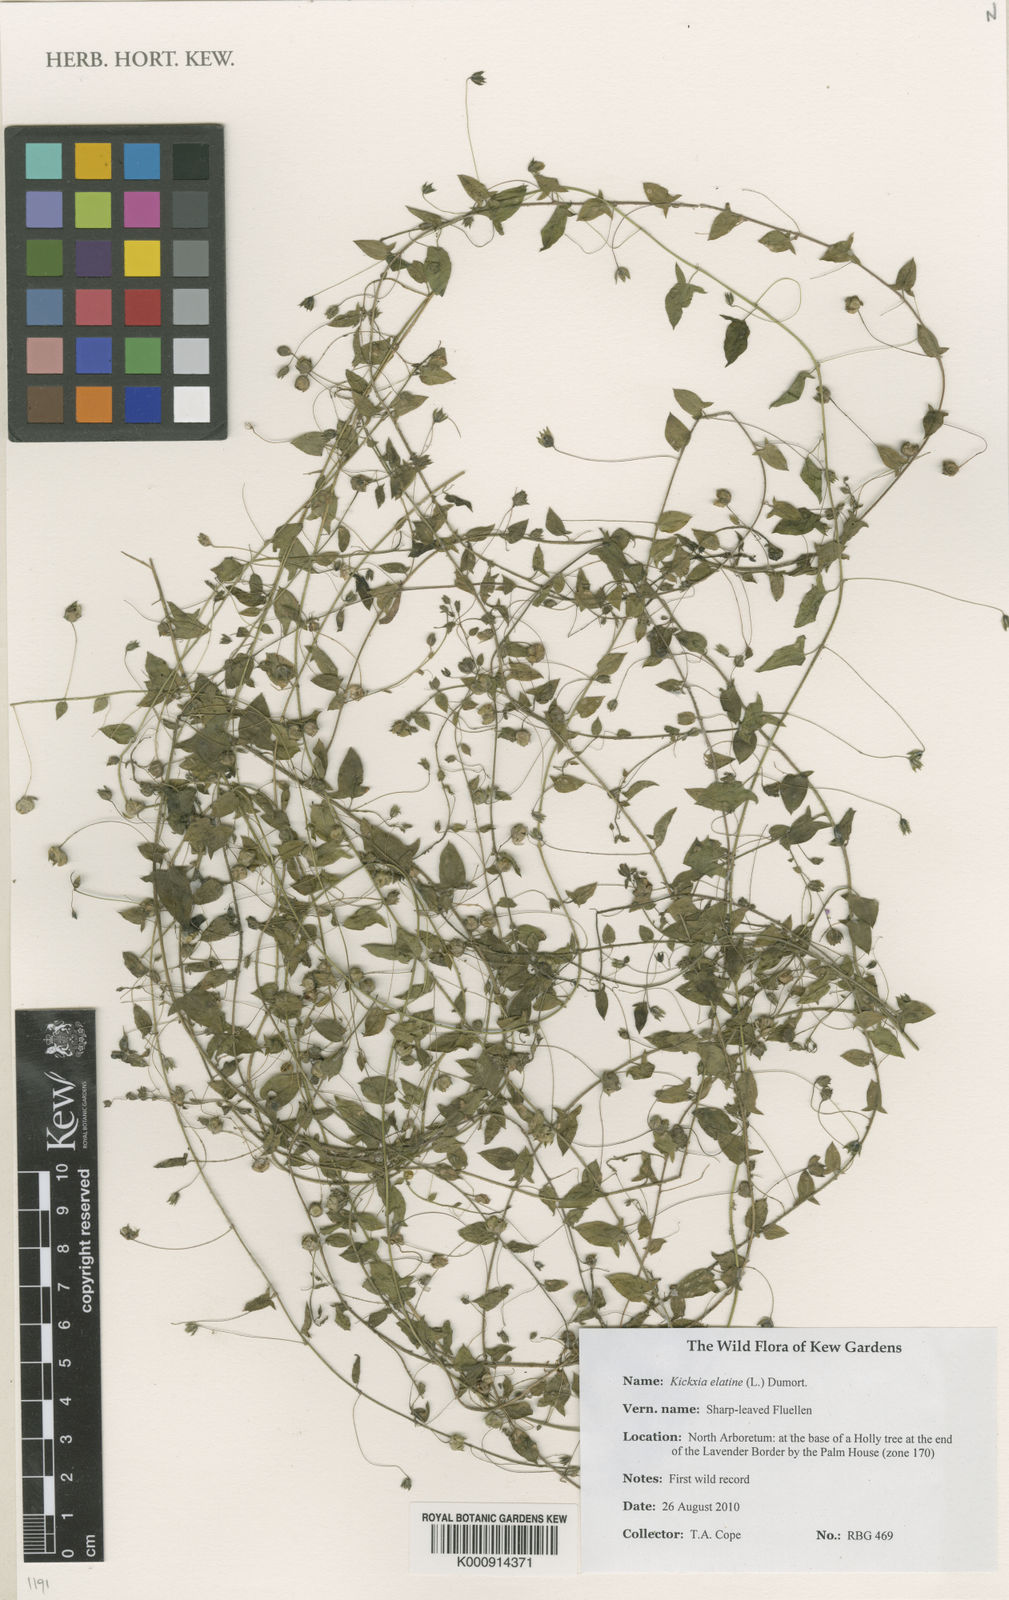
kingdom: Plantae
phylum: Tracheophyta
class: Magnoliopsida
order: Lamiales
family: Plantaginaceae
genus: Kickxia
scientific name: Kickxia elatine
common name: Sharp-leaved fluellen
